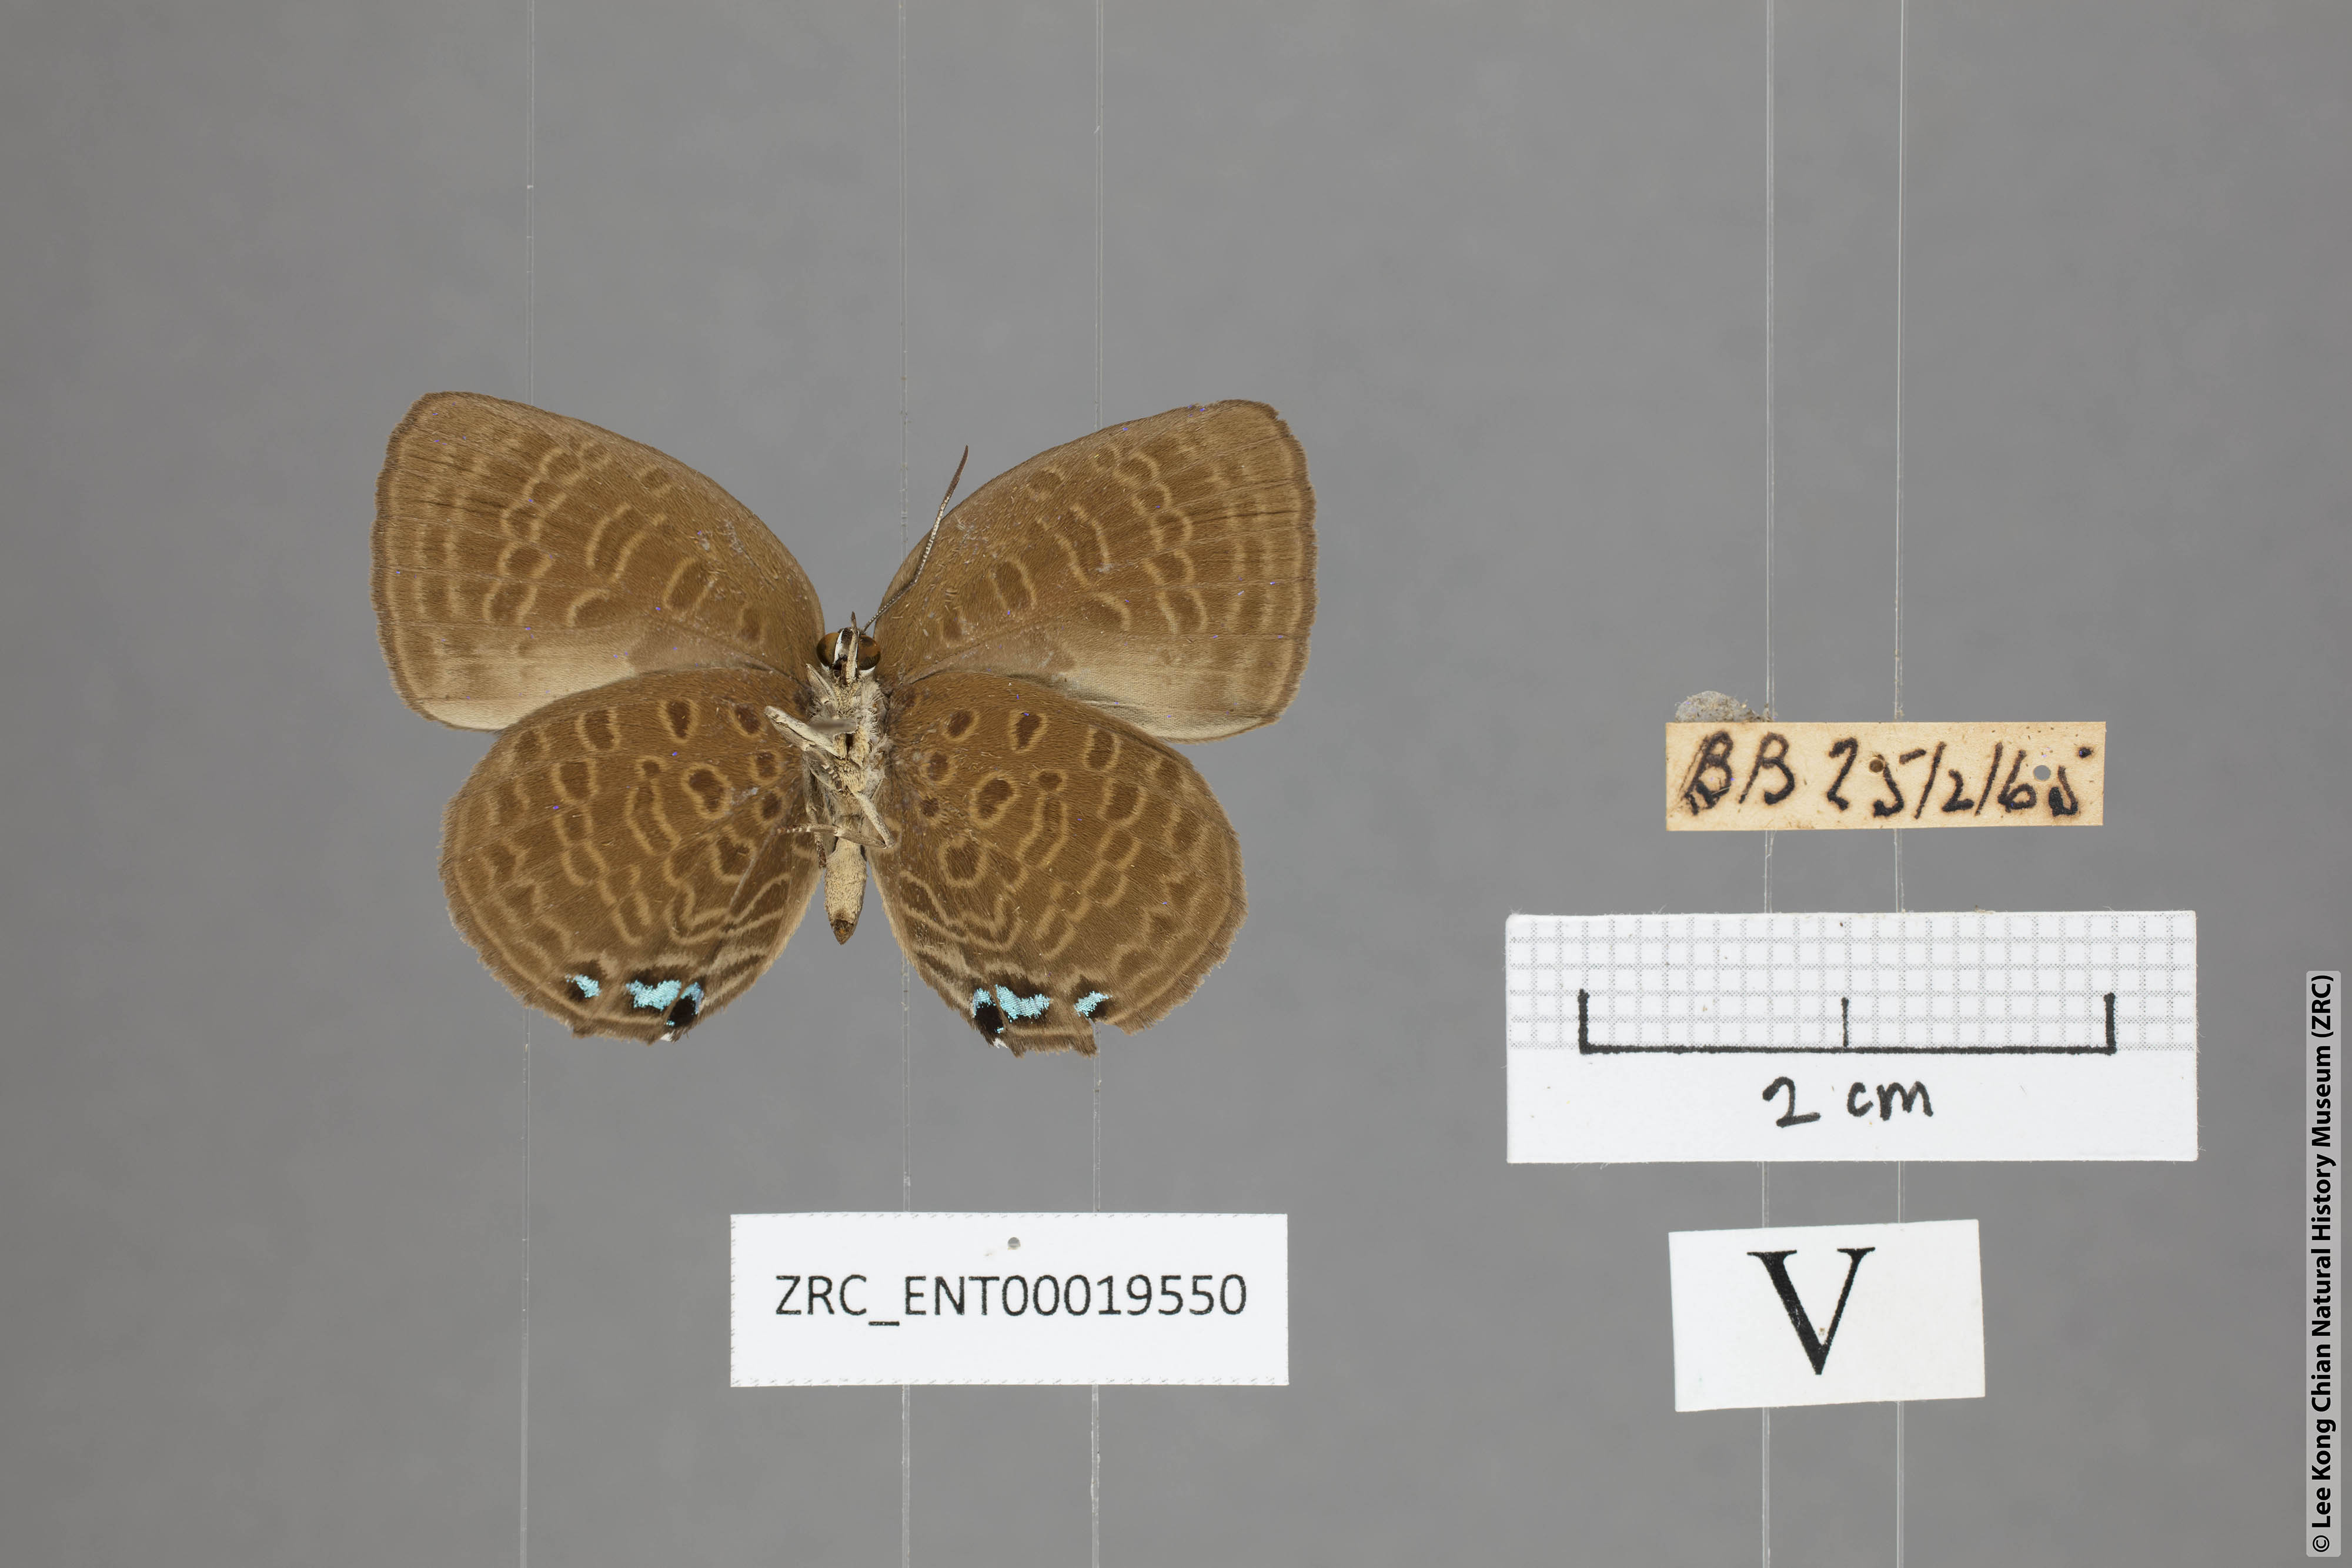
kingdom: Animalia
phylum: Arthropoda
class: Insecta
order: Lepidoptera
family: Lycaenidae
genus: Arhopala
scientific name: Arhopala hypomuta
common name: Violet oakblue
